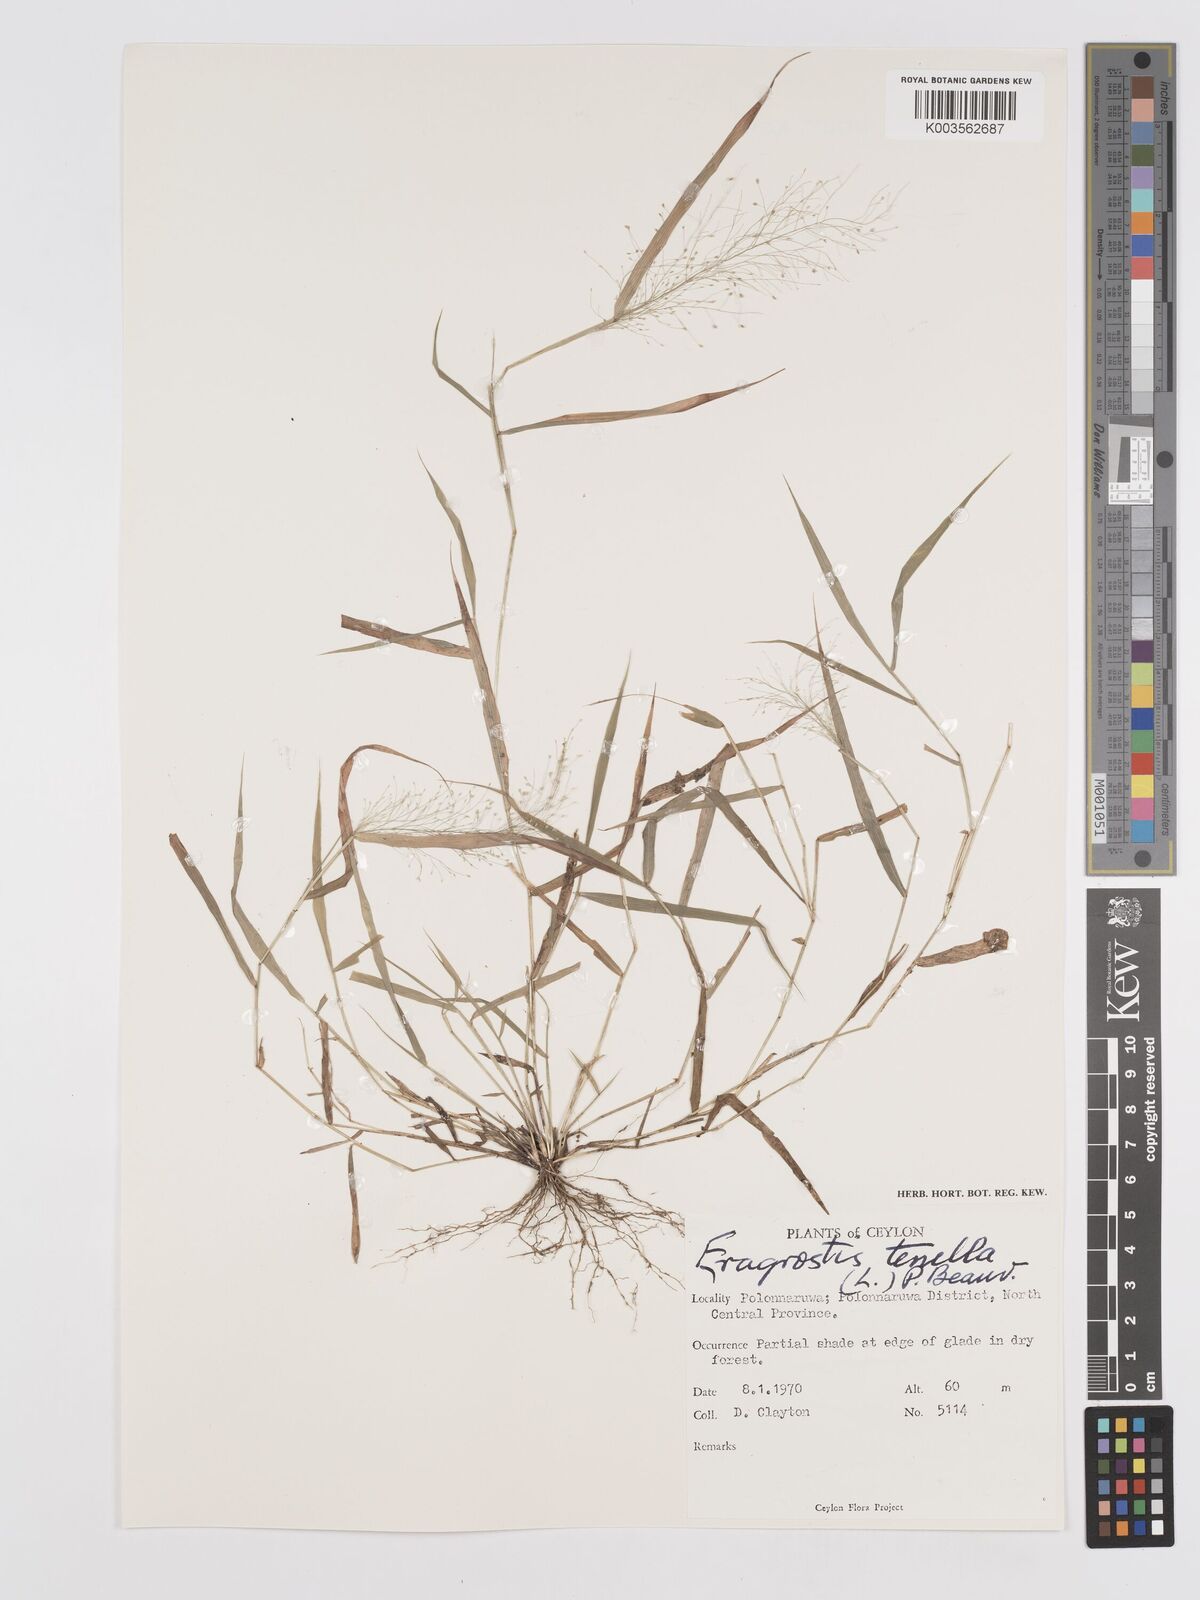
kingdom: Plantae
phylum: Tracheophyta
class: Liliopsida
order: Poales
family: Poaceae
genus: Eragrostis
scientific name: Eragrostis tenella
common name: Japanese lovegrass
